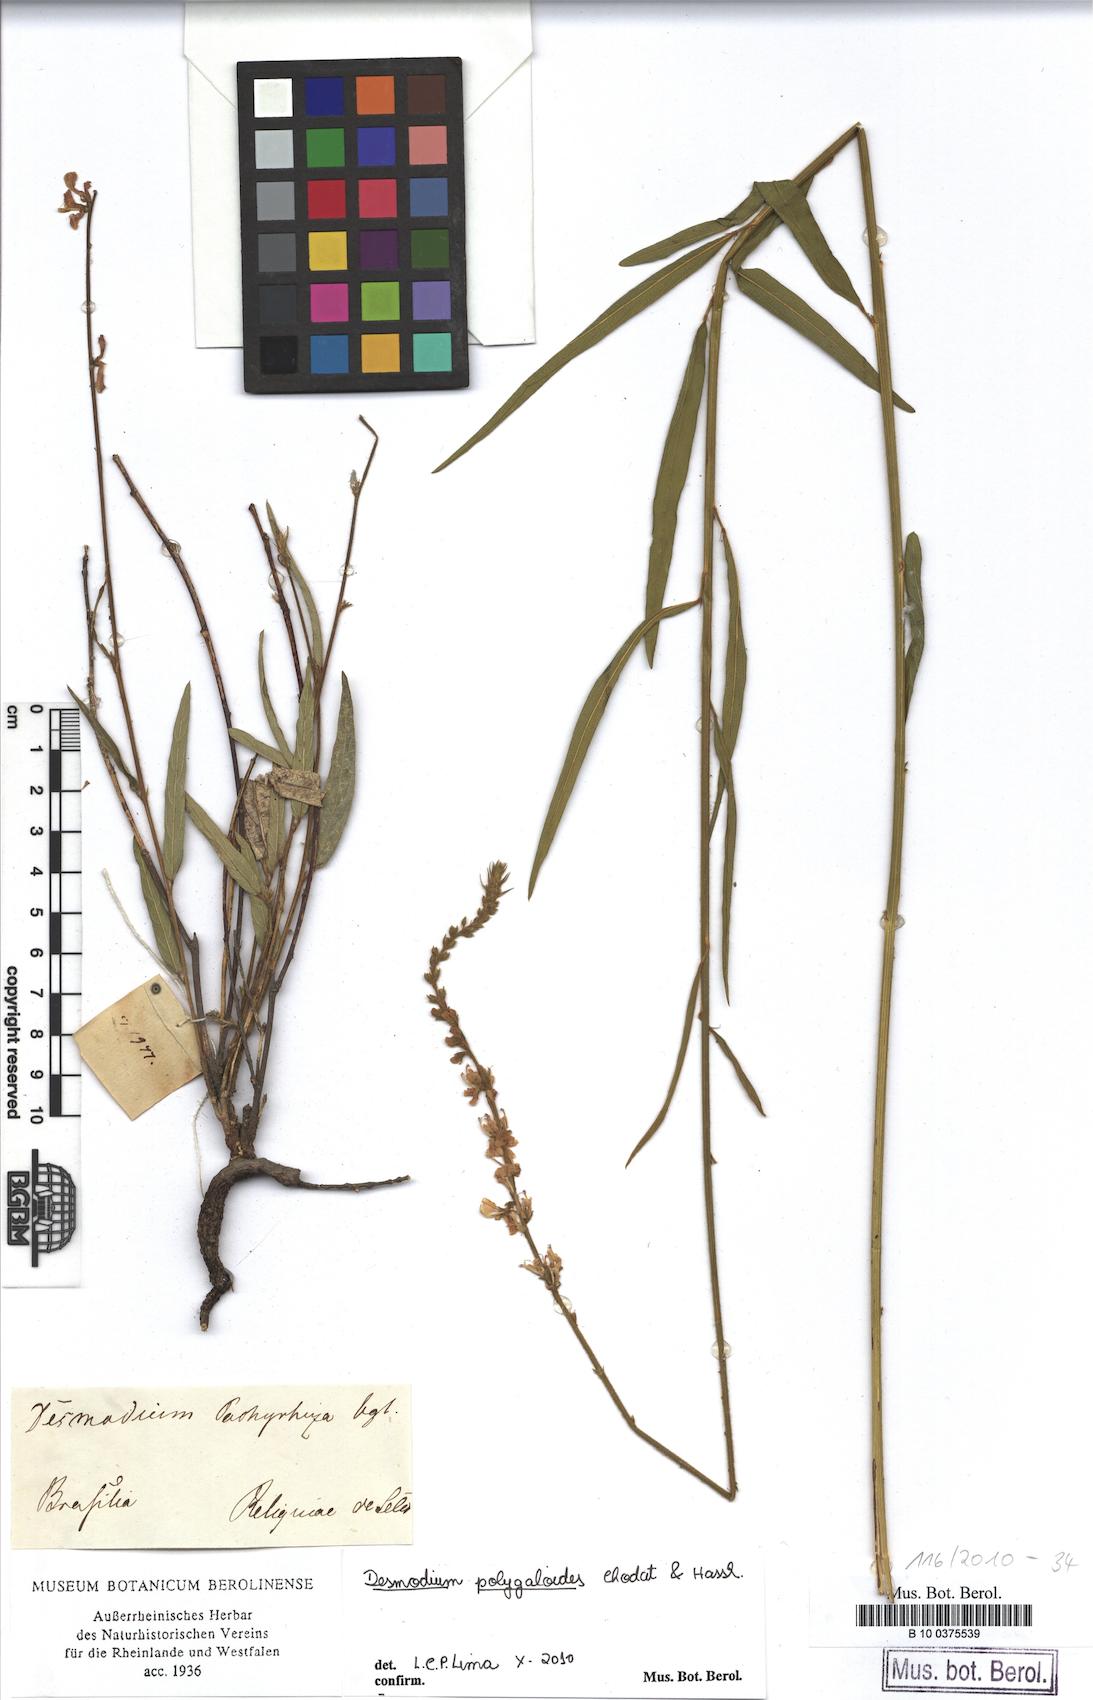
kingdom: Plantae
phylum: Tracheophyta
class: Magnoliopsida
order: Fabales
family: Fabaceae
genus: Desmodium
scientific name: Desmodium polygaloides
